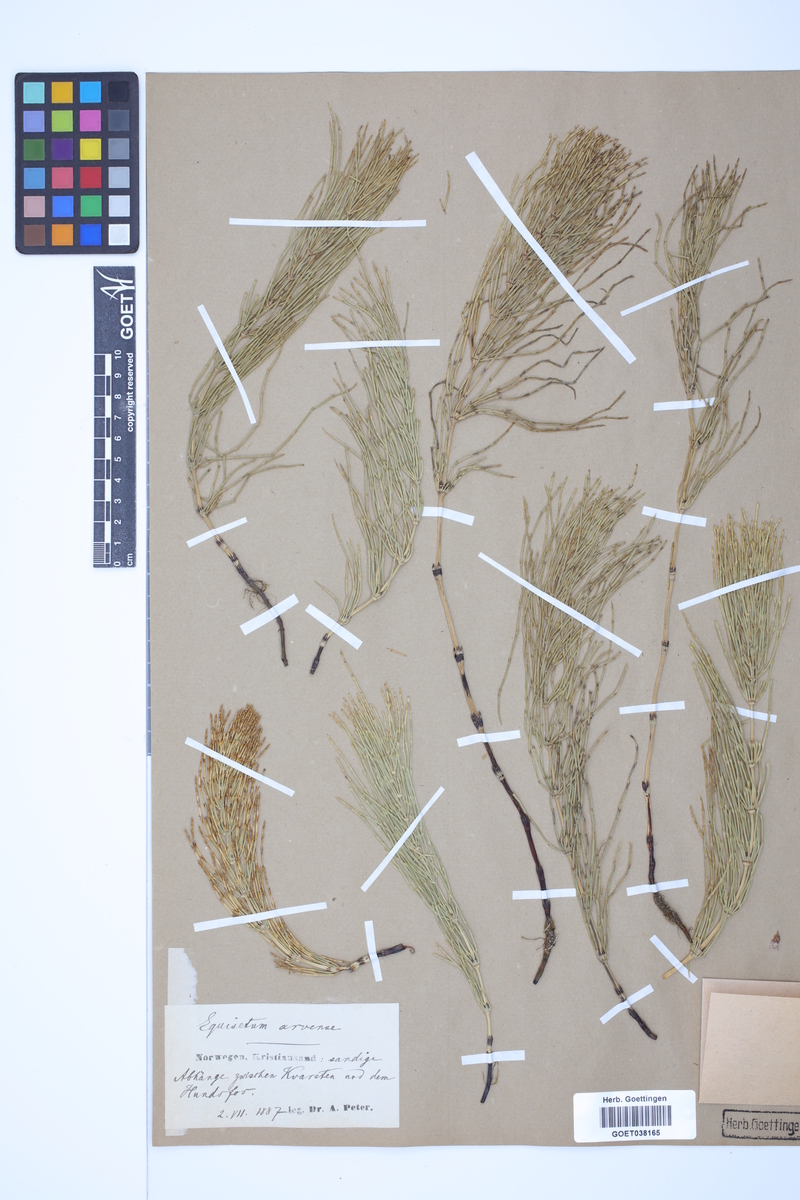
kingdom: Plantae
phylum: Tracheophyta
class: Polypodiopsida
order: Equisetales
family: Equisetaceae
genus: Equisetum
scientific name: Equisetum arvense
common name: Field horsetail
